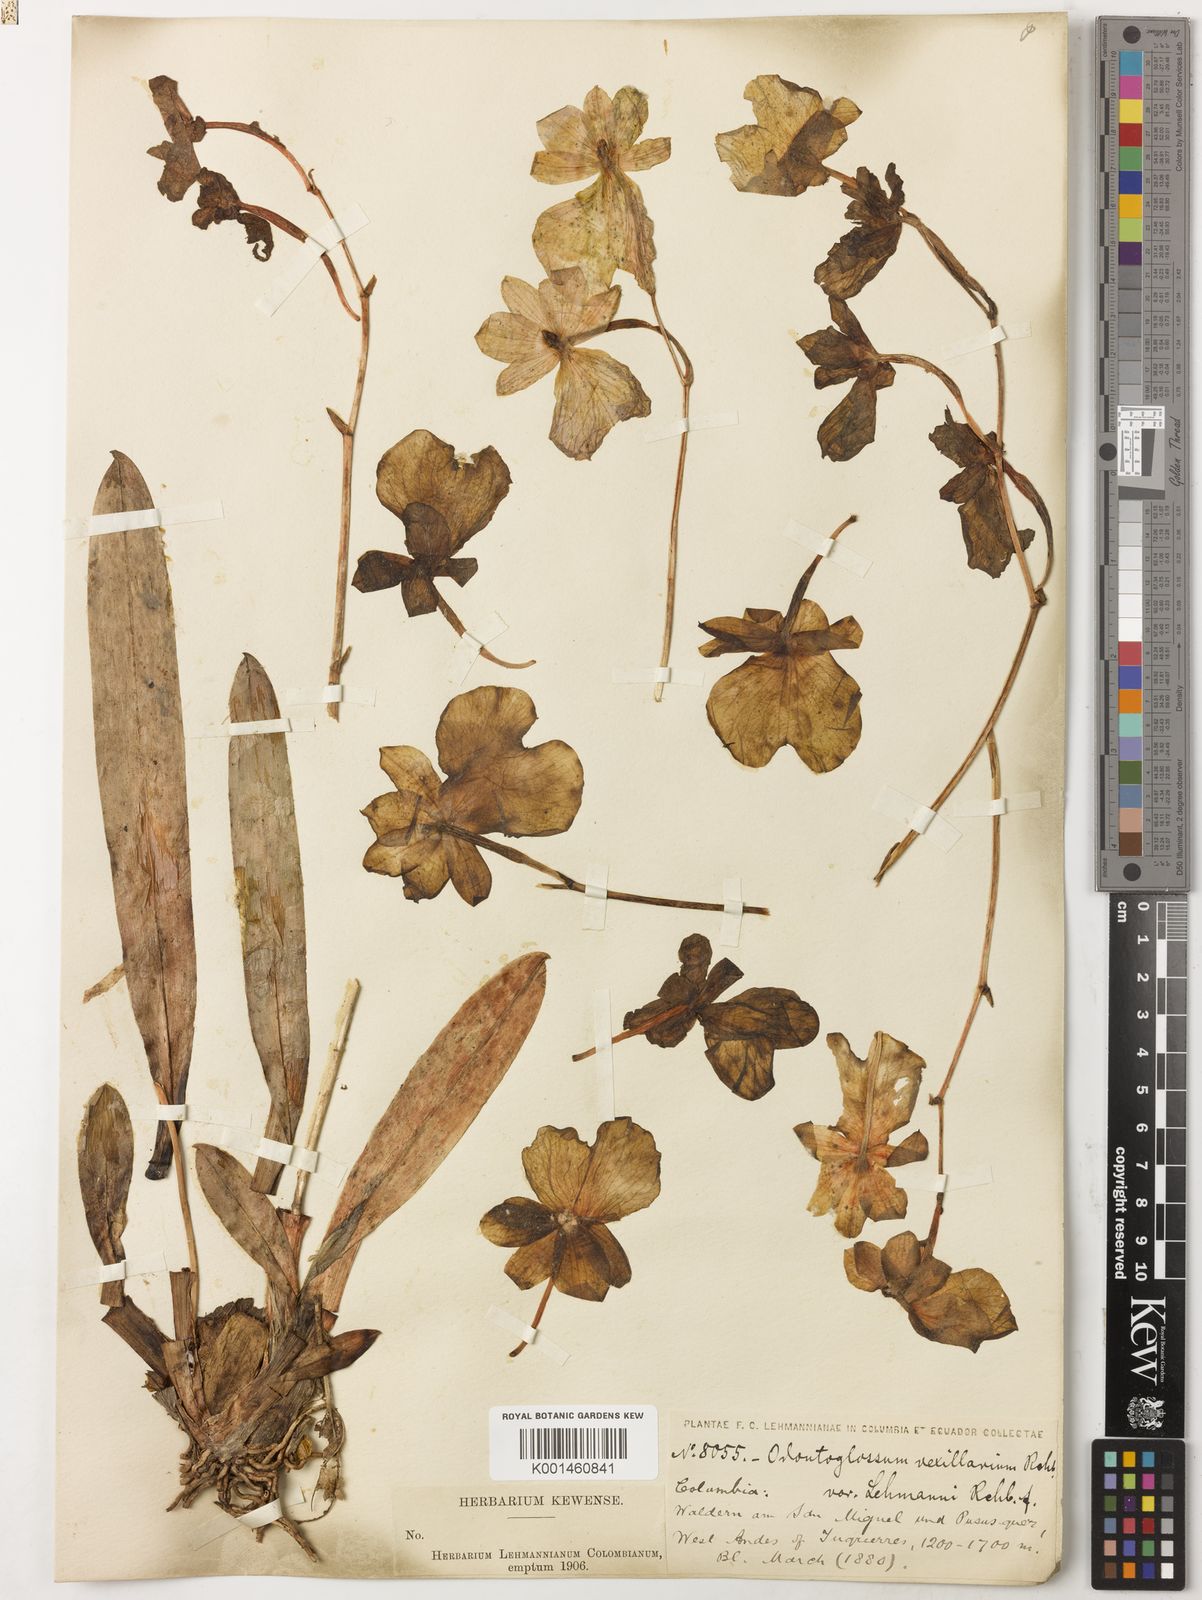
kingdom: Plantae
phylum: Tracheophyta
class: Liliopsida
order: Asparagales
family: Orchidaceae
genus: Miltoniopsis
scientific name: Miltoniopsis vexillaria
